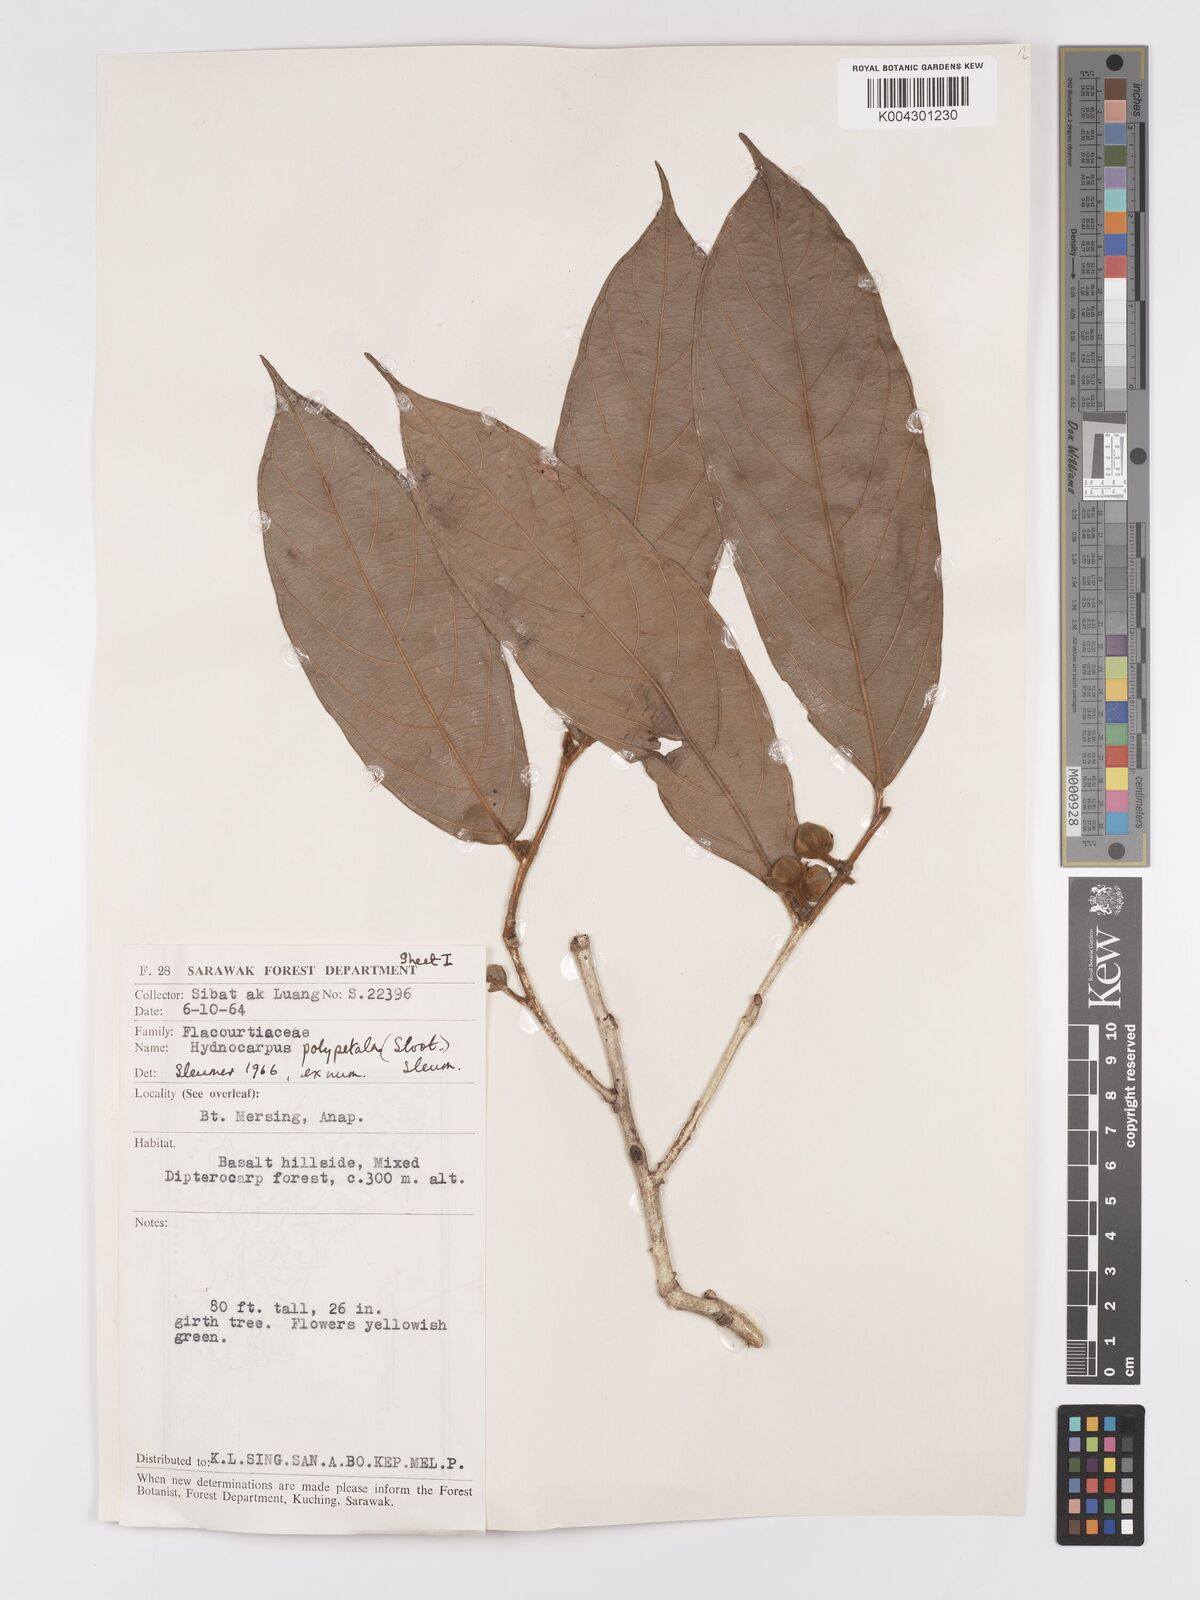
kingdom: Plantae
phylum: Tracheophyta
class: Magnoliopsida
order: Malpighiales
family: Achariaceae
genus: Hydnocarpus
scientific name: Hydnocarpus polypetalus
